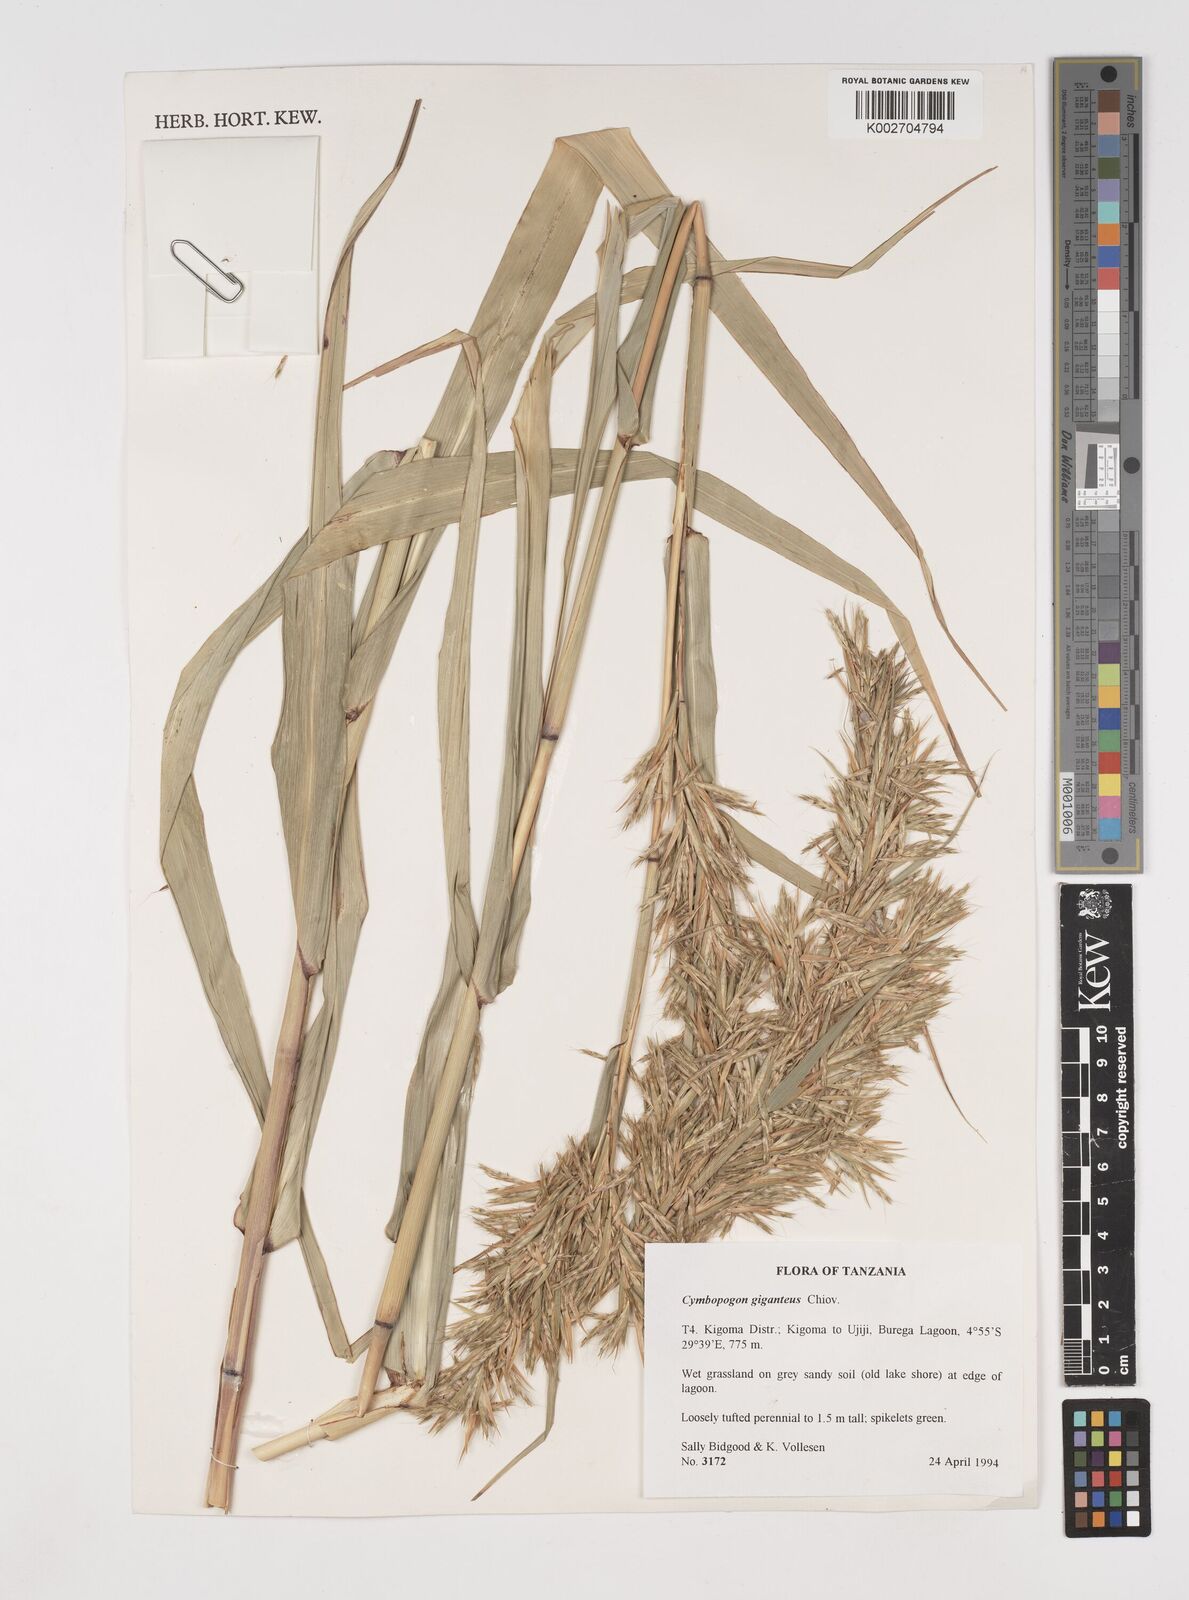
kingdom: Plantae
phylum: Tracheophyta
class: Liliopsida
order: Poales
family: Poaceae
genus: Cymbopogon
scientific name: Cymbopogon giganteus
